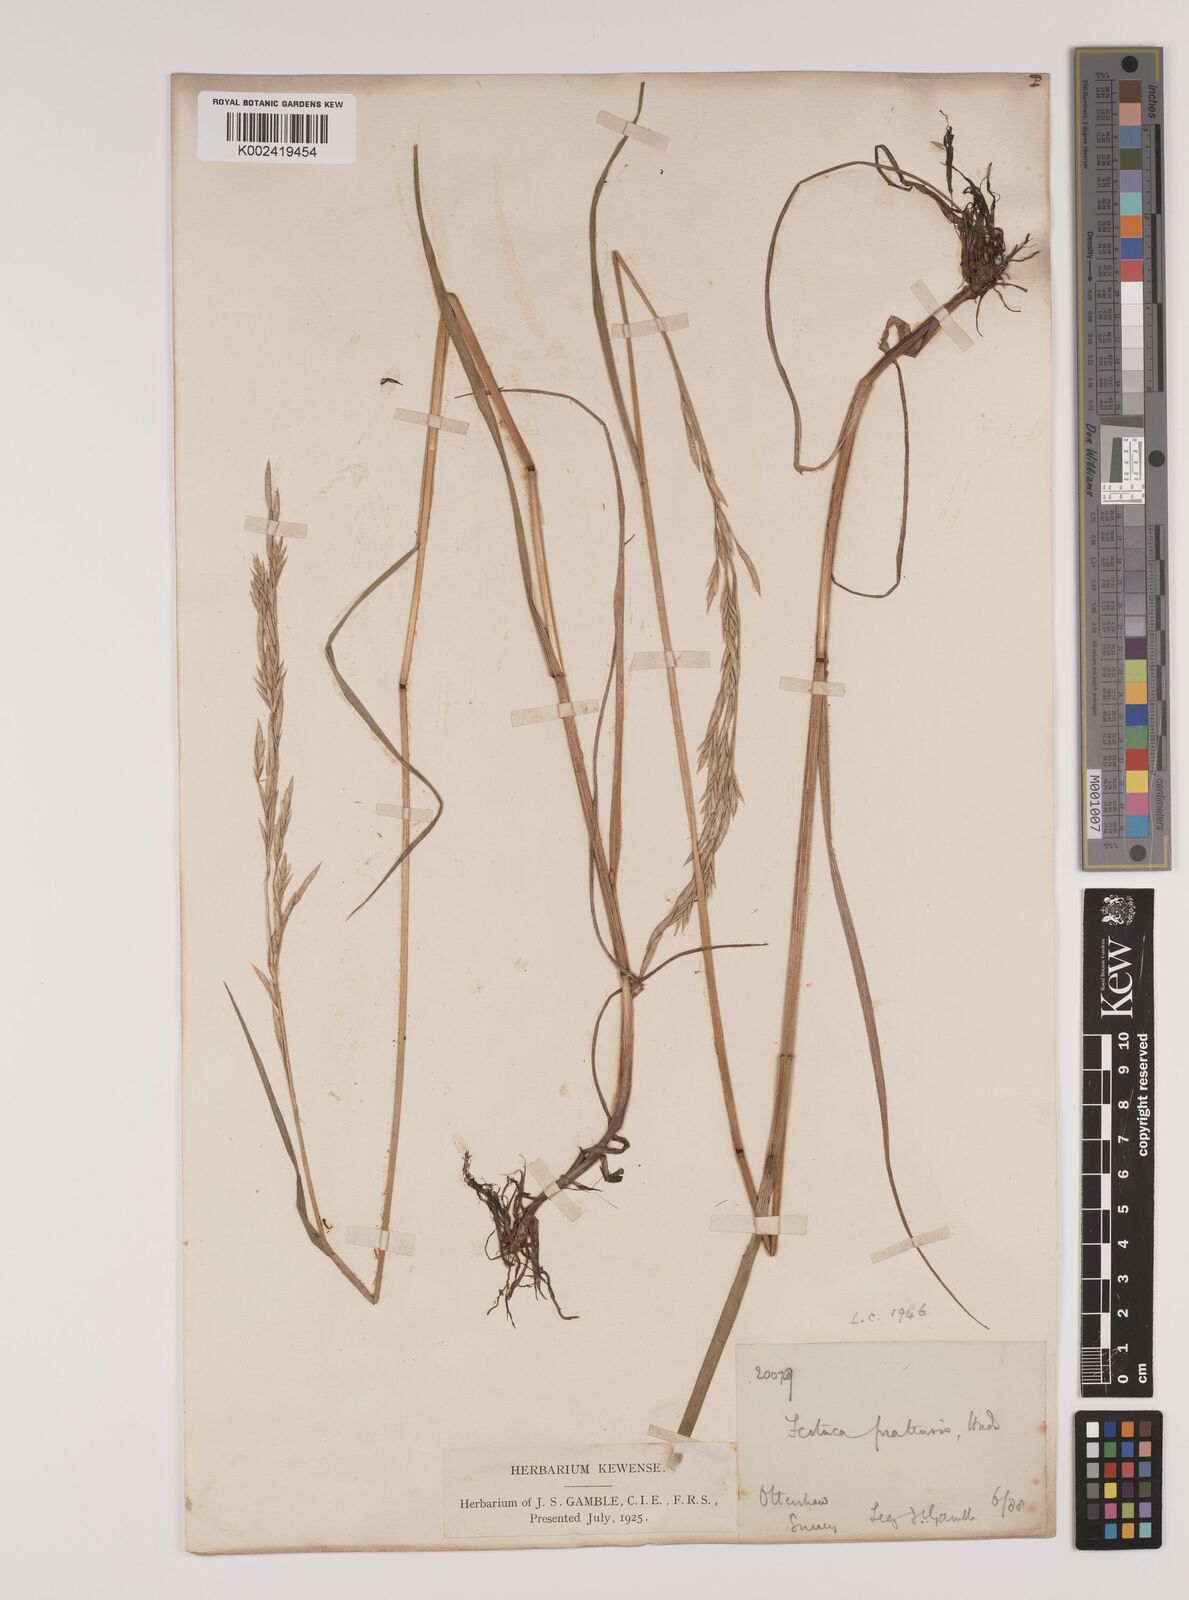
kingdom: Plantae
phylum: Tracheophyta
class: Liliopsida
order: Poales
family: Poaceae
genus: Lolium
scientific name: Lolium pratense
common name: Dover grass
